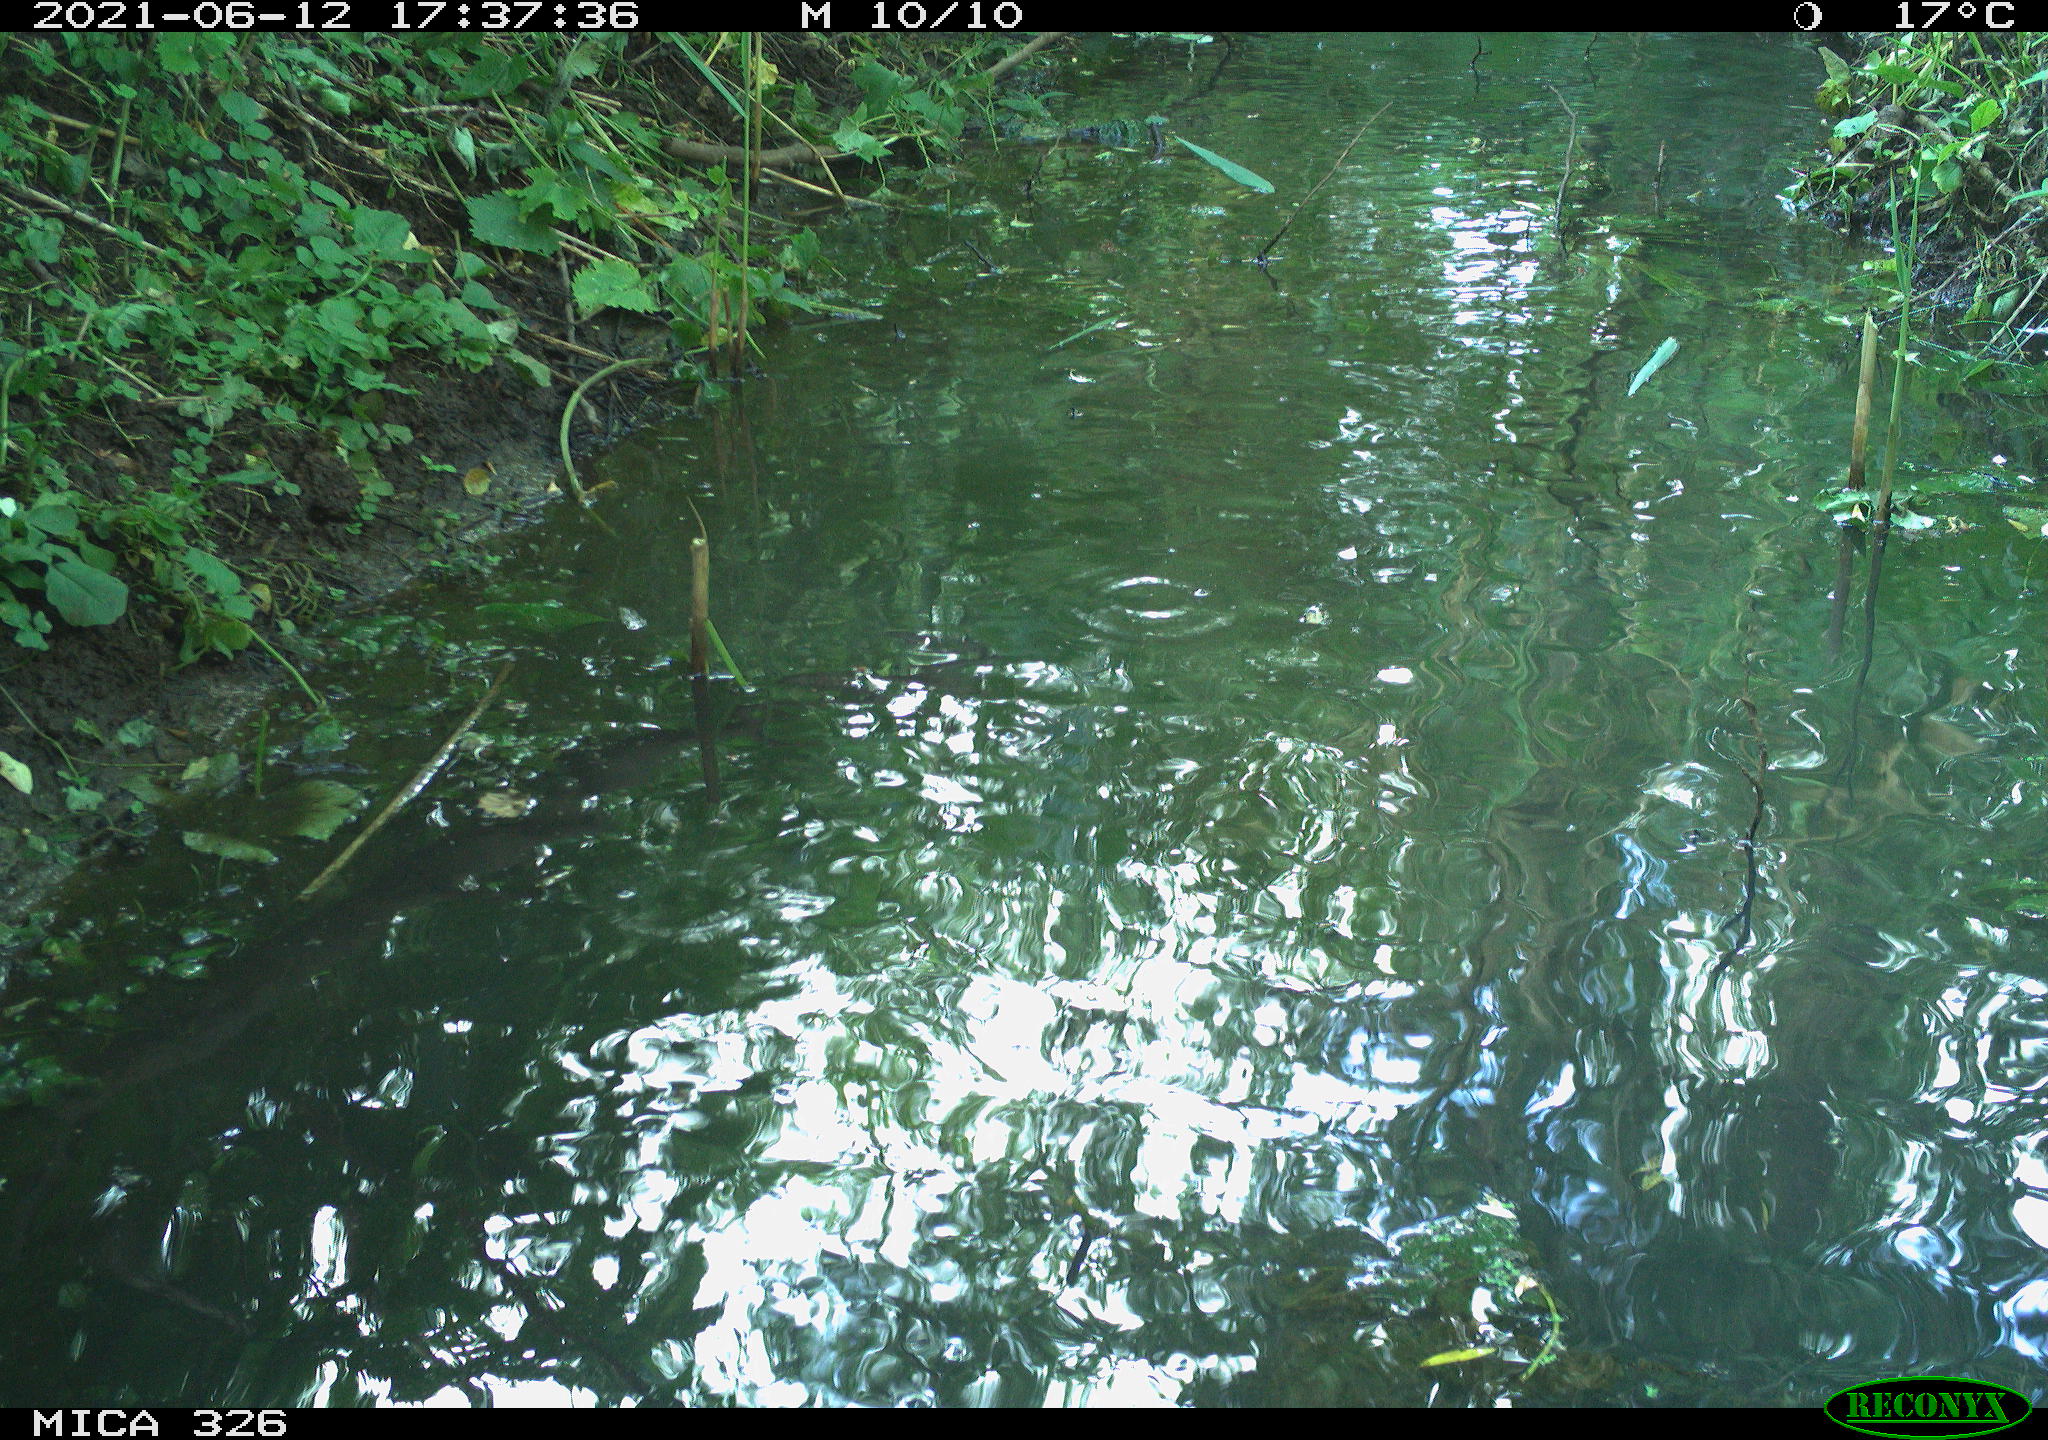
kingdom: Animalia
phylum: Chordata
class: Aves
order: Anseriformes
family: Anatidae
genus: Anas
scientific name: Anas platyrhynchos
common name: Mallard
